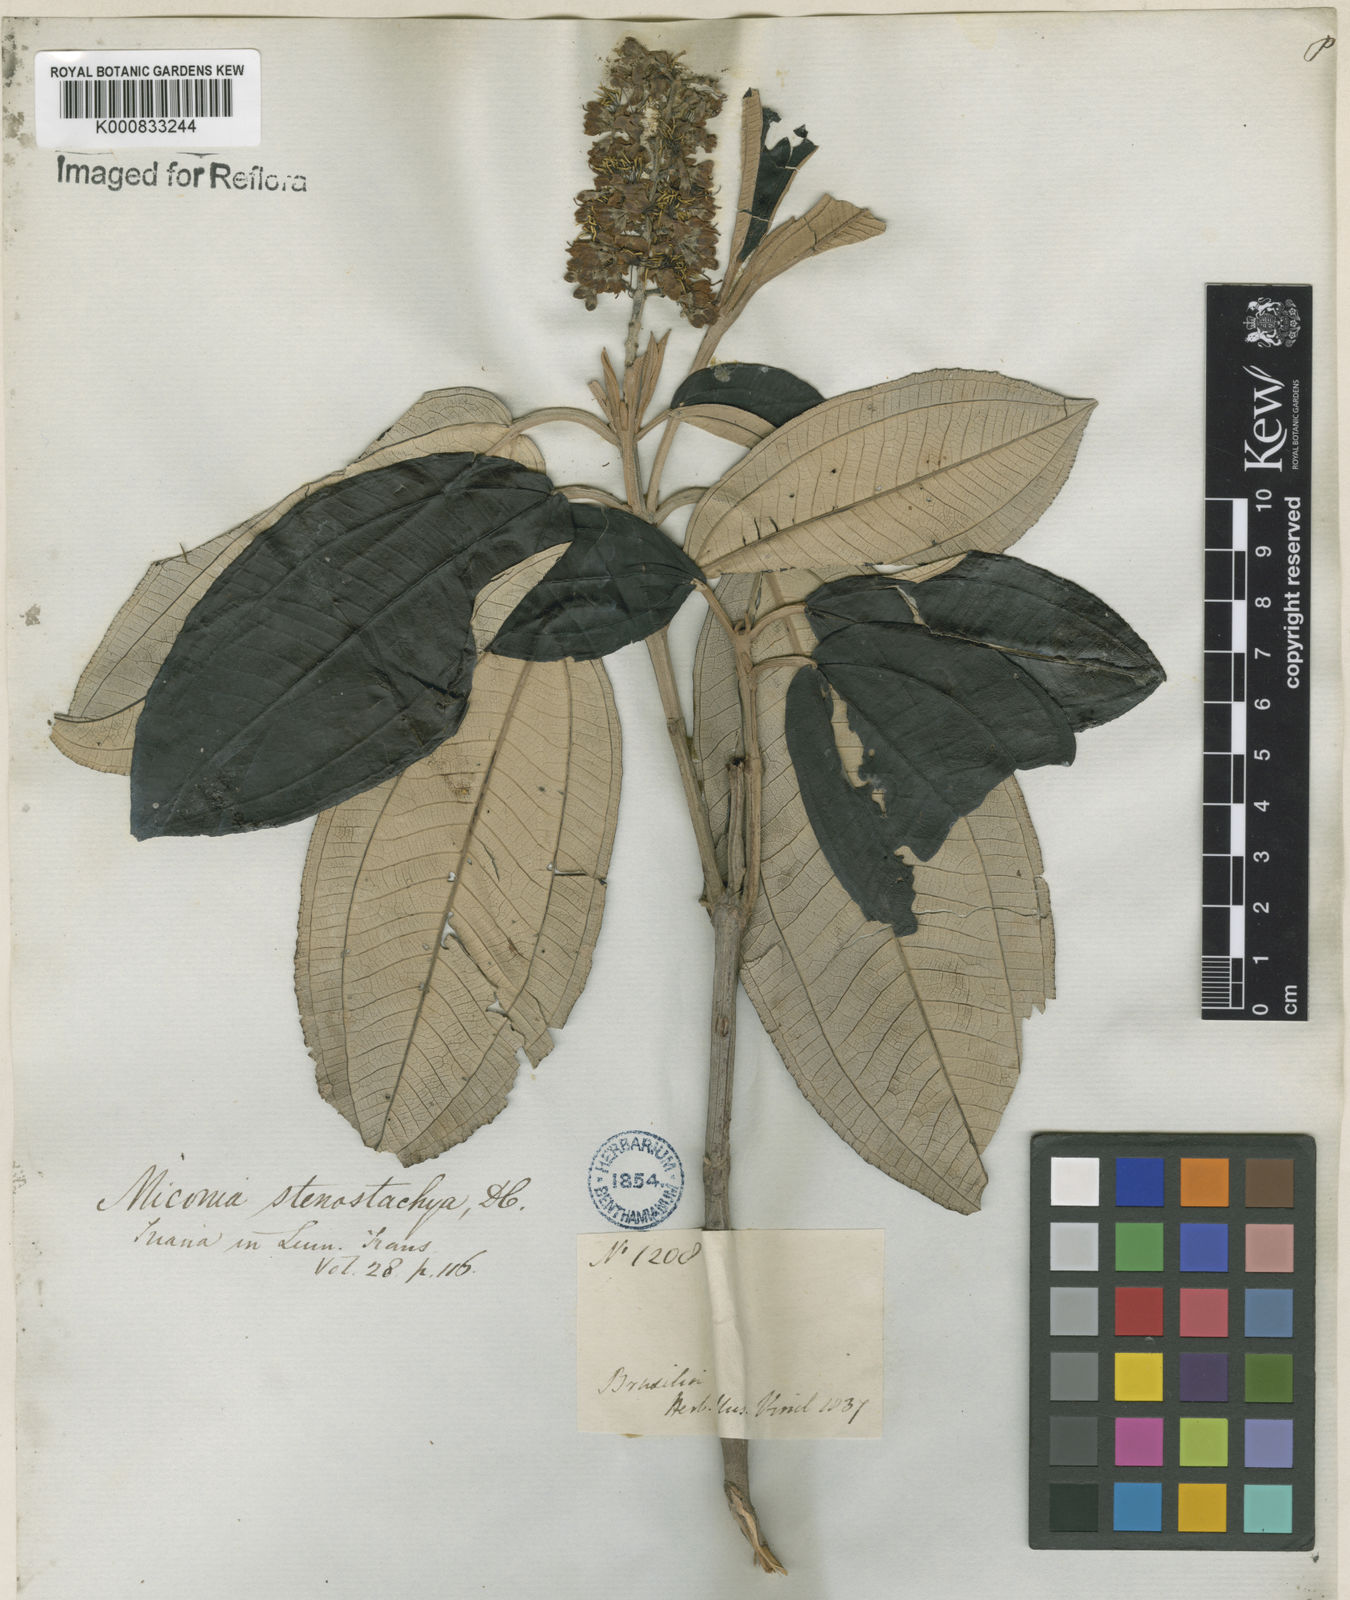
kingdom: Plantae
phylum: Tracheophyta
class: Magnoliopsida
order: Myrtales
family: Melastomataceae
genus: Miconia
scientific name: Miconia stenostachya
